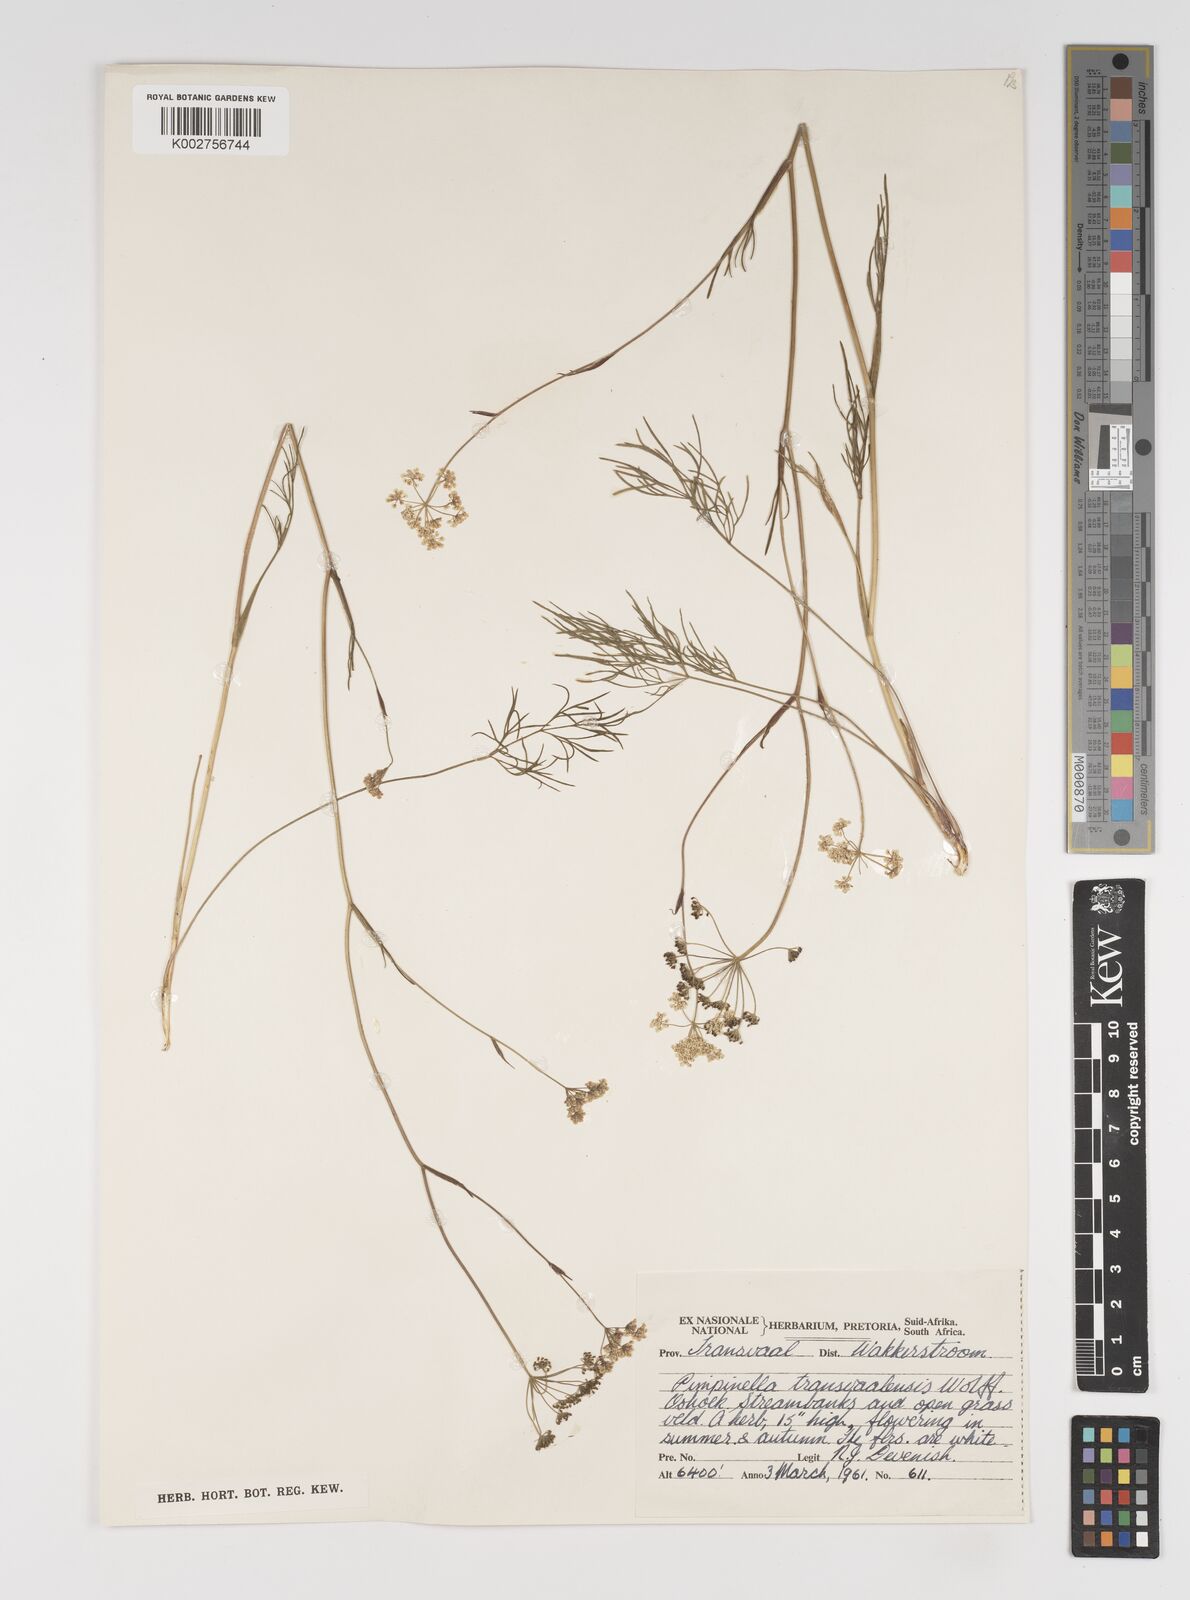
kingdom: Plantae
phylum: Tracheophyta
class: Magnoliopsida
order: Apiales
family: Apiaceae
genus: Pimpinella
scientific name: Pimpinella transvaalensis
